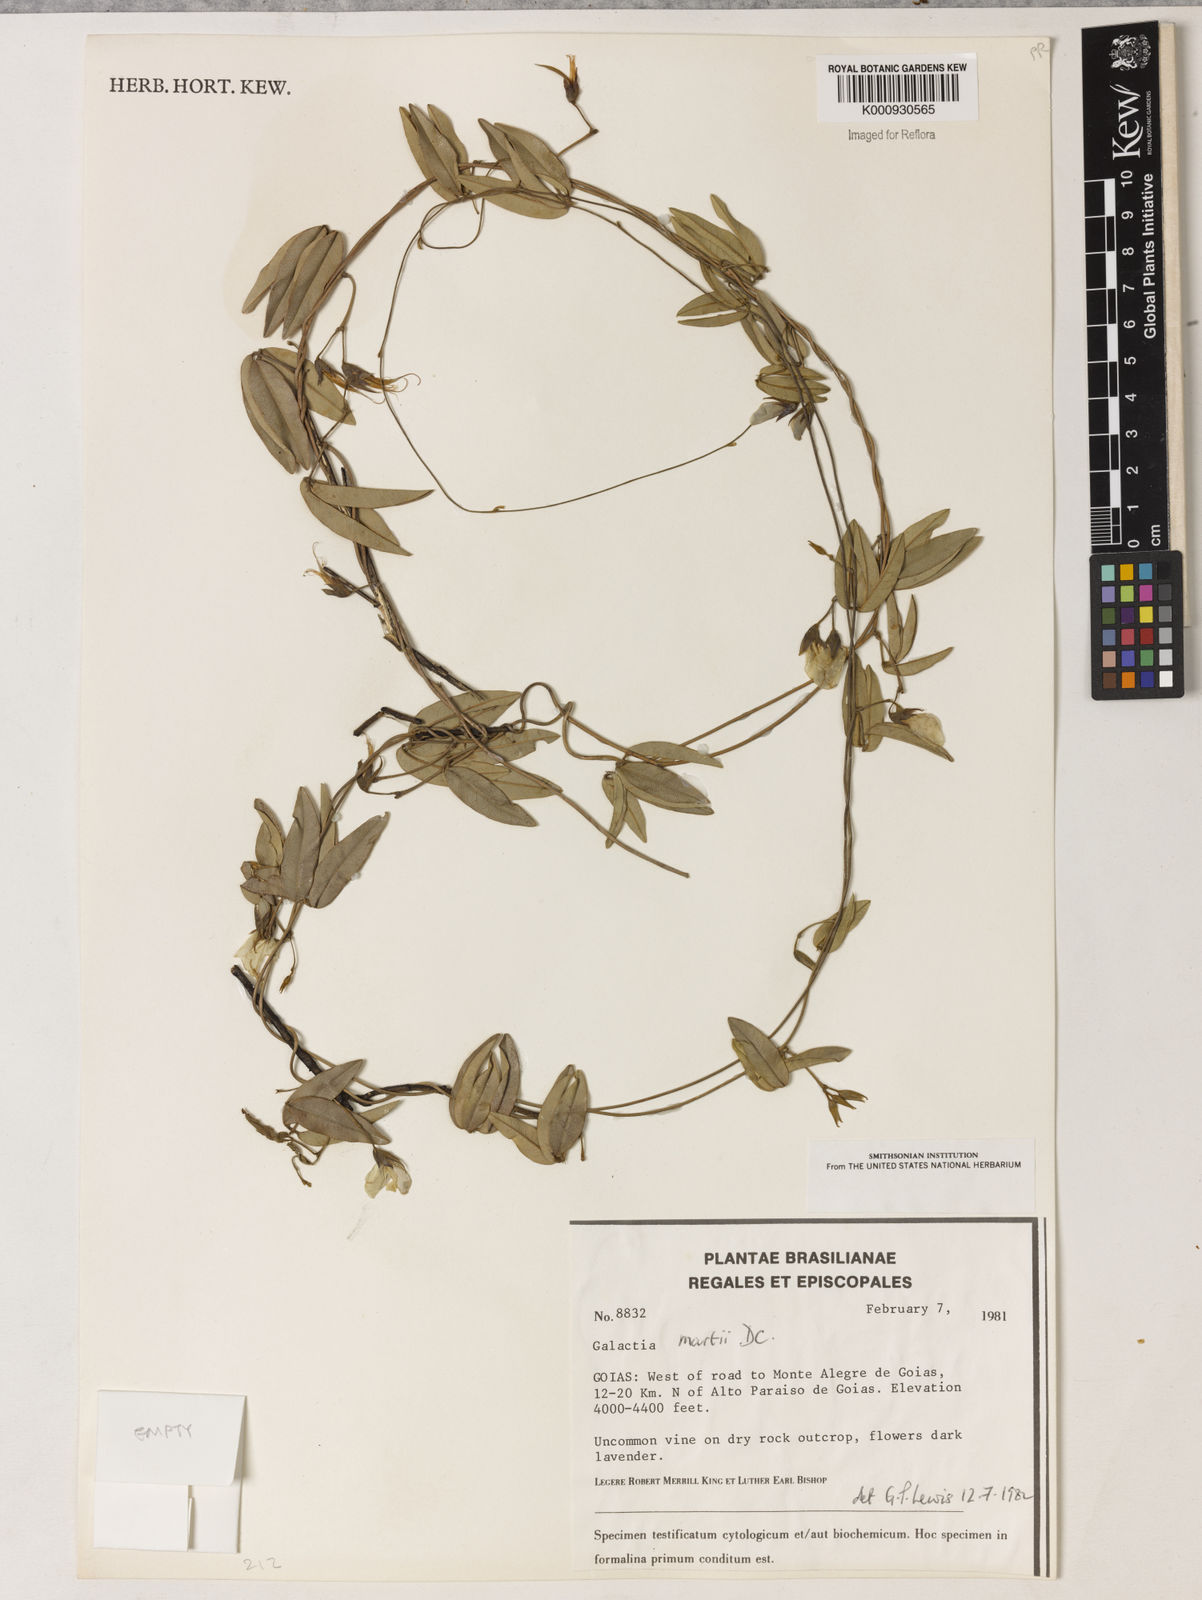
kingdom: Plantae
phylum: Tracheophyta
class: Magnoliopsida
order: Fabales
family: Fabaceae
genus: Betencourtia
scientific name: Betencourtia martii
